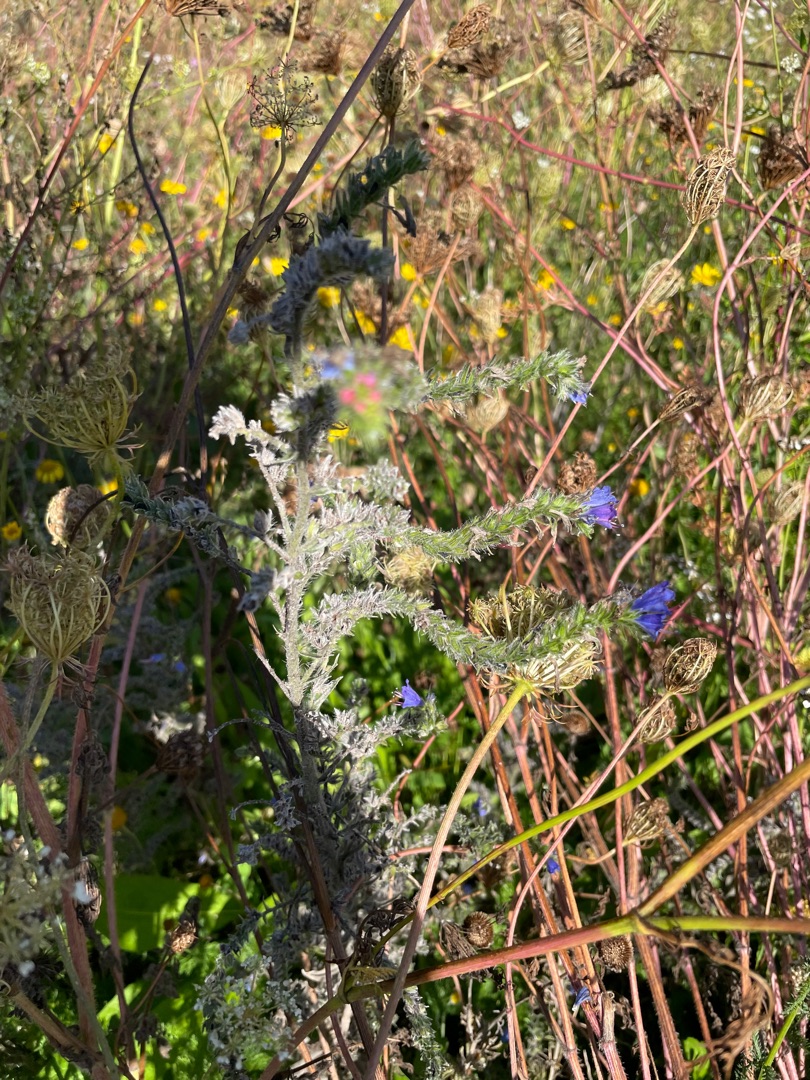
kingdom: Plantae
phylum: Tracheophyta
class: Magnoliopsida
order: Boraginales
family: Boraginaceae
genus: Echium
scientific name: Echium vulgare
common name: Slangehoved
